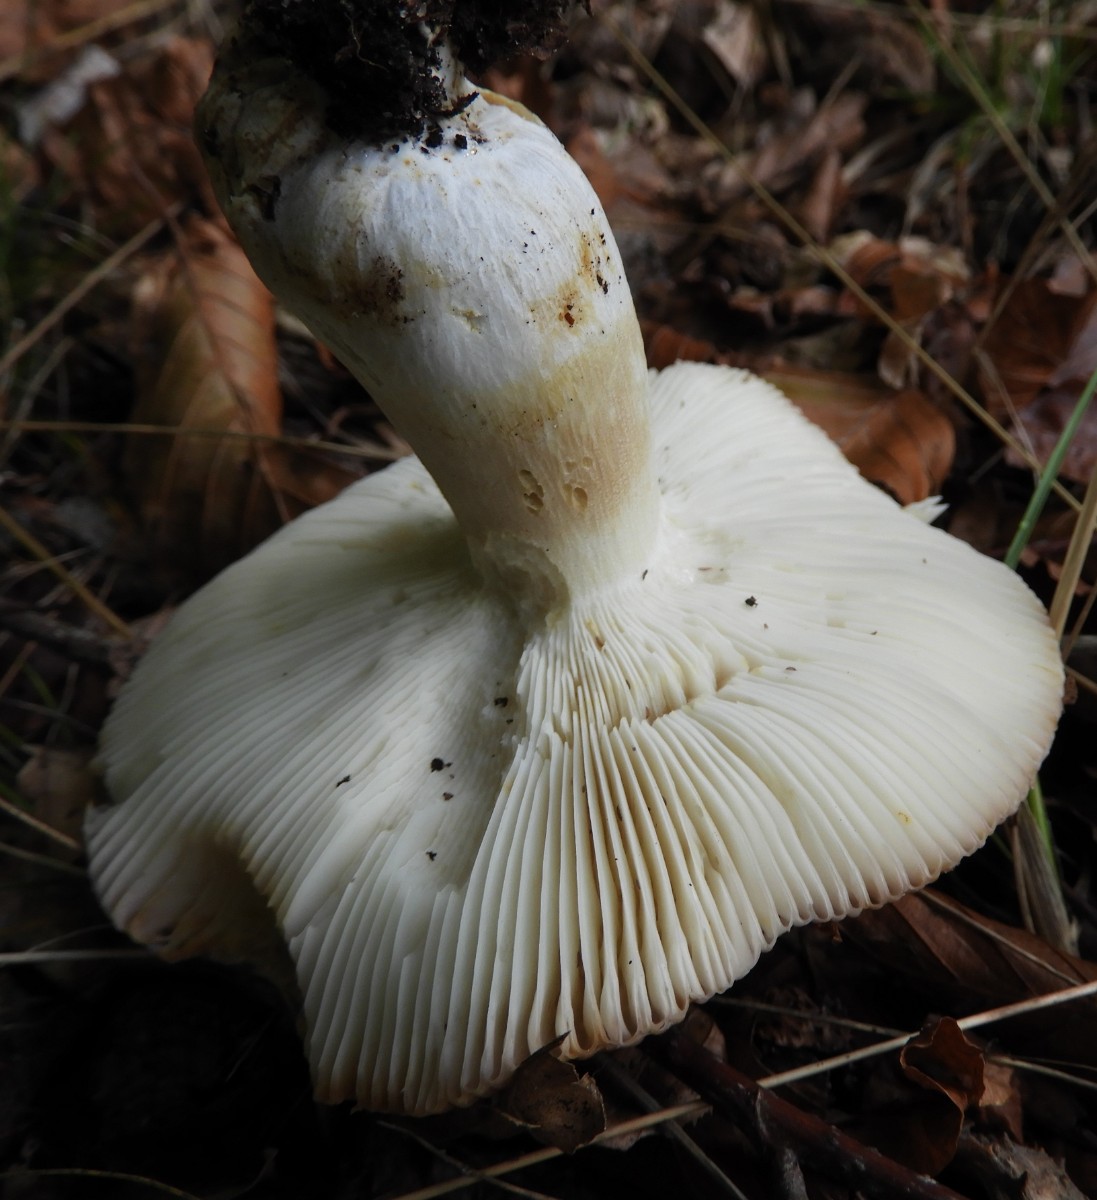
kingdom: Fungi
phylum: Basidiomycota
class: Agaricomycetes
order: Russulales
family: Russulaceae
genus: Russula
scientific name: Russula
